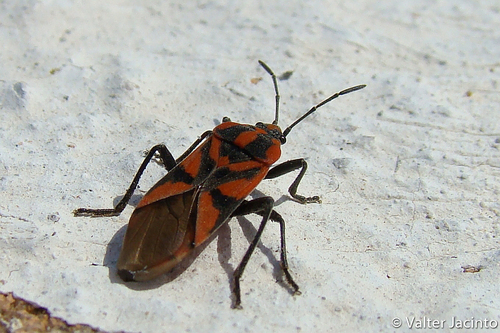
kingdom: Animalia
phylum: Arthropoda
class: Insecta
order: Hemiptera
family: Lygaeidae
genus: Spilostethus
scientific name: Spilostethus furcula
